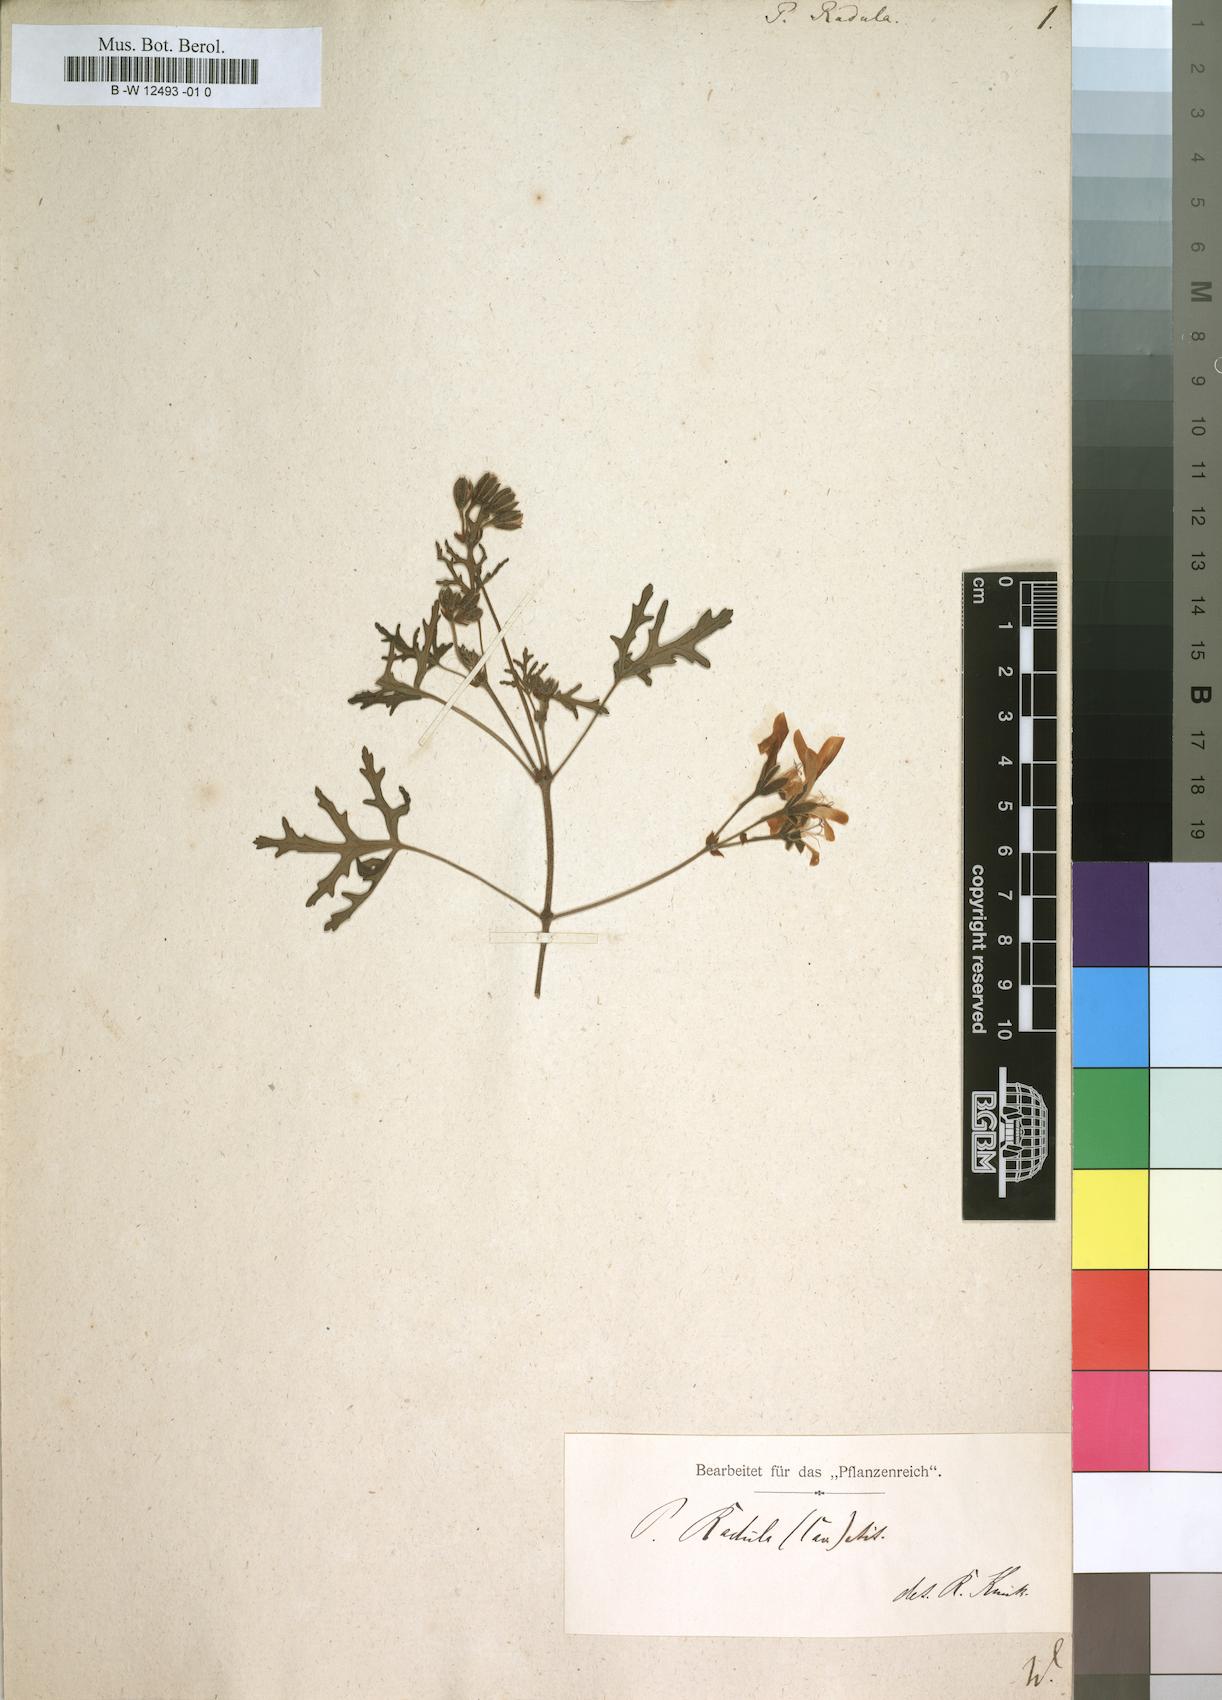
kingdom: Plantae
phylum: Tracheophyta
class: Magnoliopsida
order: Geraniales
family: Geraniaceae
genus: Pelargonium
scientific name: Pelargonium radens
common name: Rasp-leaf pelargonium
